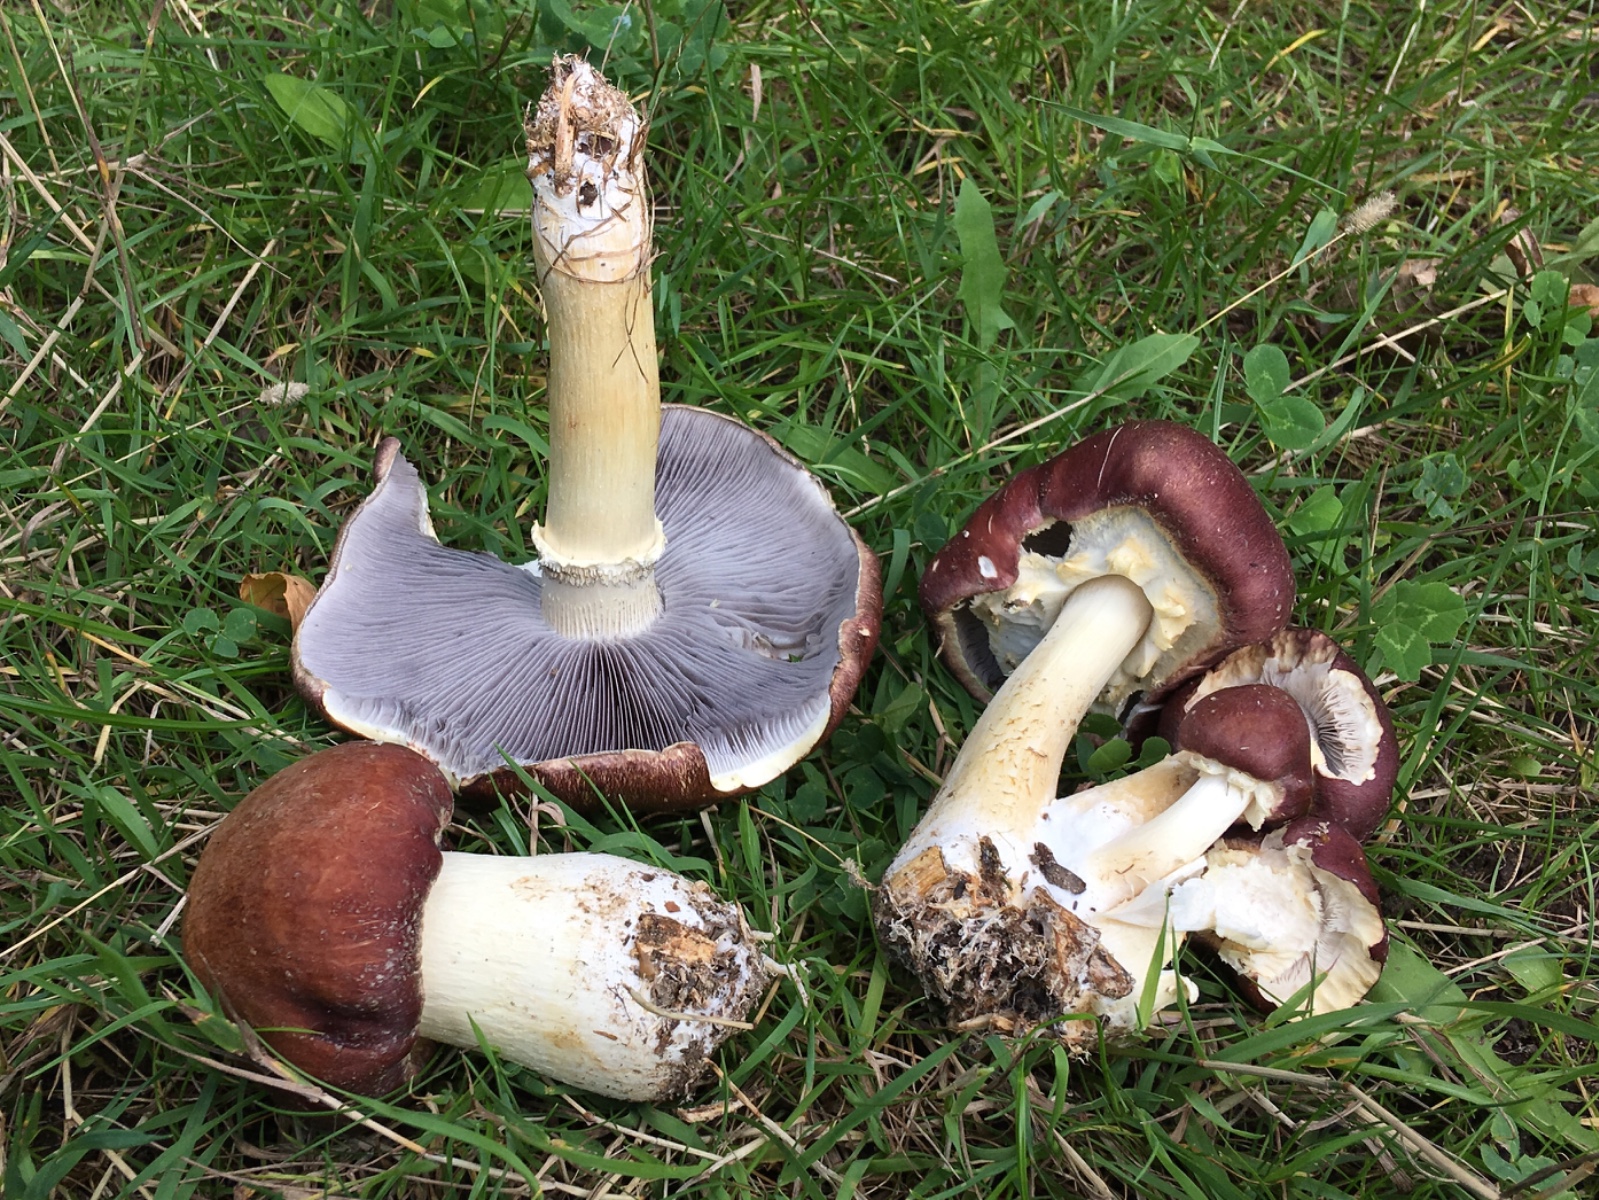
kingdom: Fungi
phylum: Basidiomycota
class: Agaricomycetes
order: Agaricales
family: Strophariaceae
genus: Stropharia
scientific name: Stropharia rugosoannulata
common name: rødbrun bredblad
